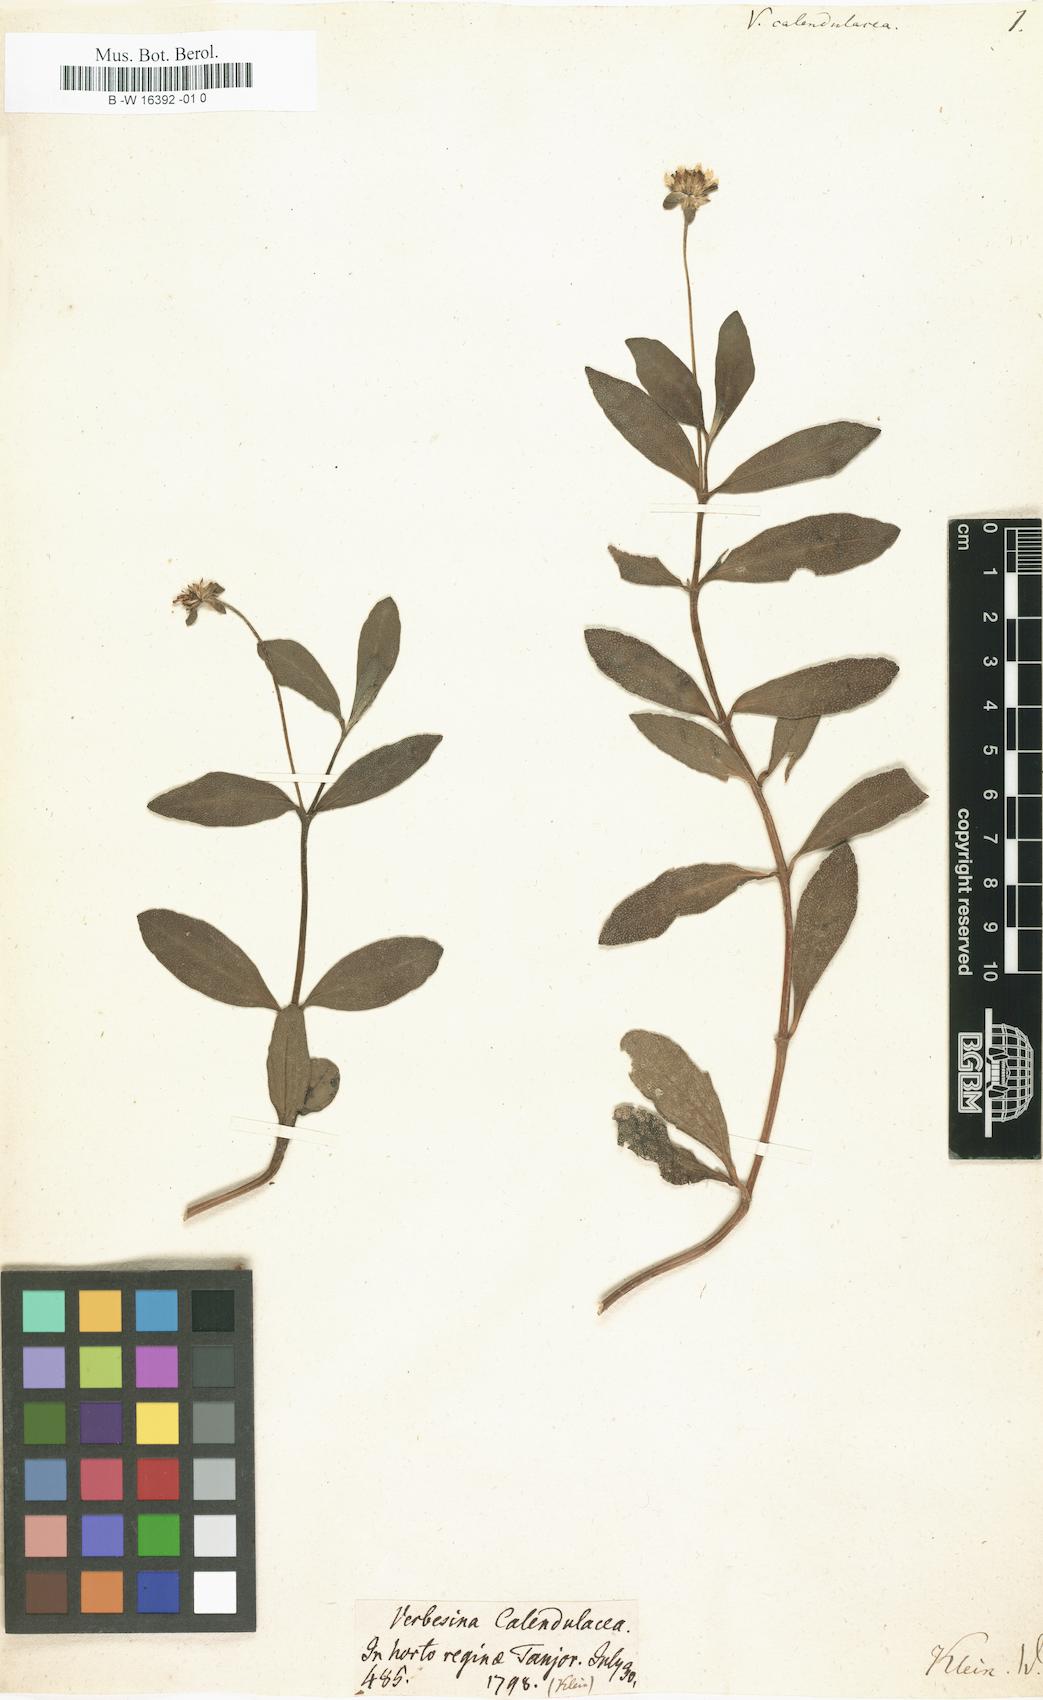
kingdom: Plantae
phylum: Tracheophyta
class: Magnoliopsida
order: Asterales
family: Asteraceae
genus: Sphagneticola
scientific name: Sphagneticola calendulacea
